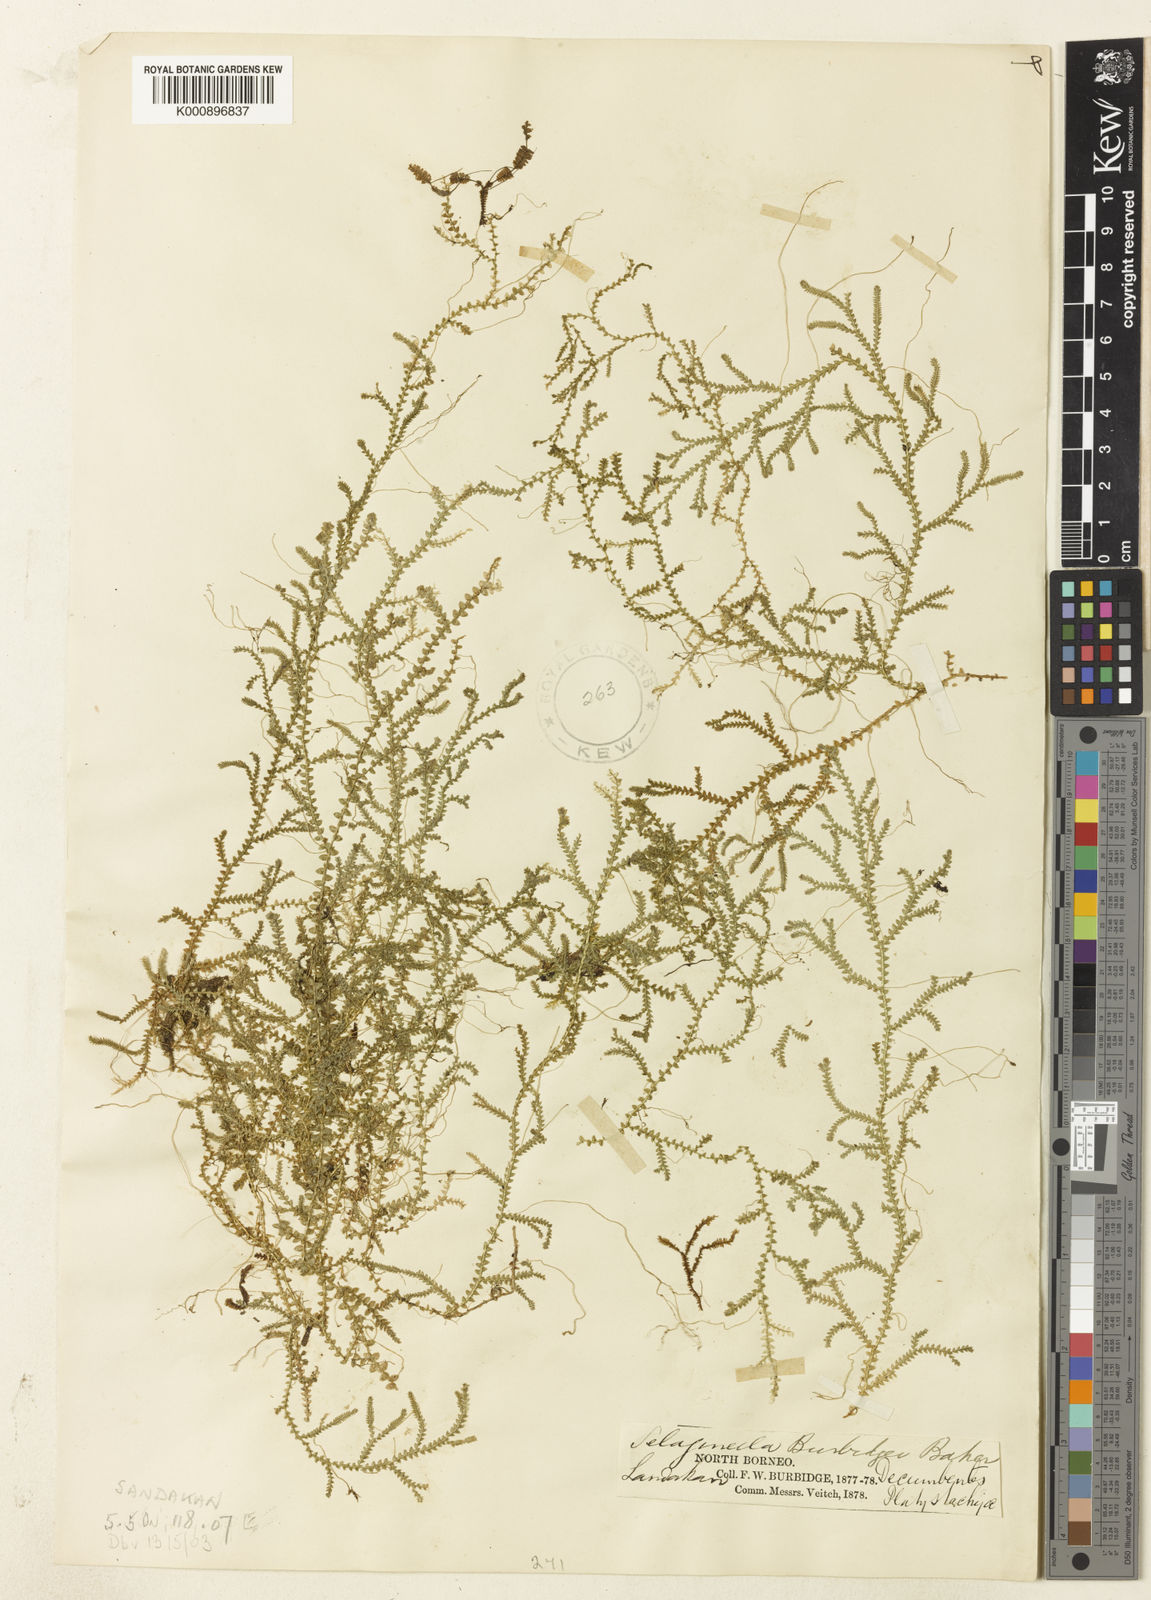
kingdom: Plantae
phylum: Tracheophyta
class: Lycopodiopsida
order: Selaginellales
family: Selaginellaceae
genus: Selaginella
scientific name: Selaginella burbidgei
